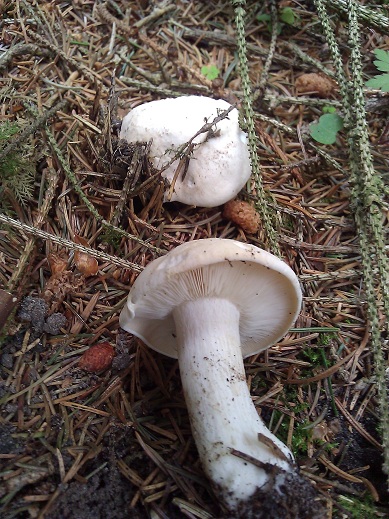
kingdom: Fungi
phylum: Basidiomycota
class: Agaricomycetes
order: Agaricales
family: Lyophyllaceae
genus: Calocybe
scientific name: Calocybe gambosa
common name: vårmusseron
